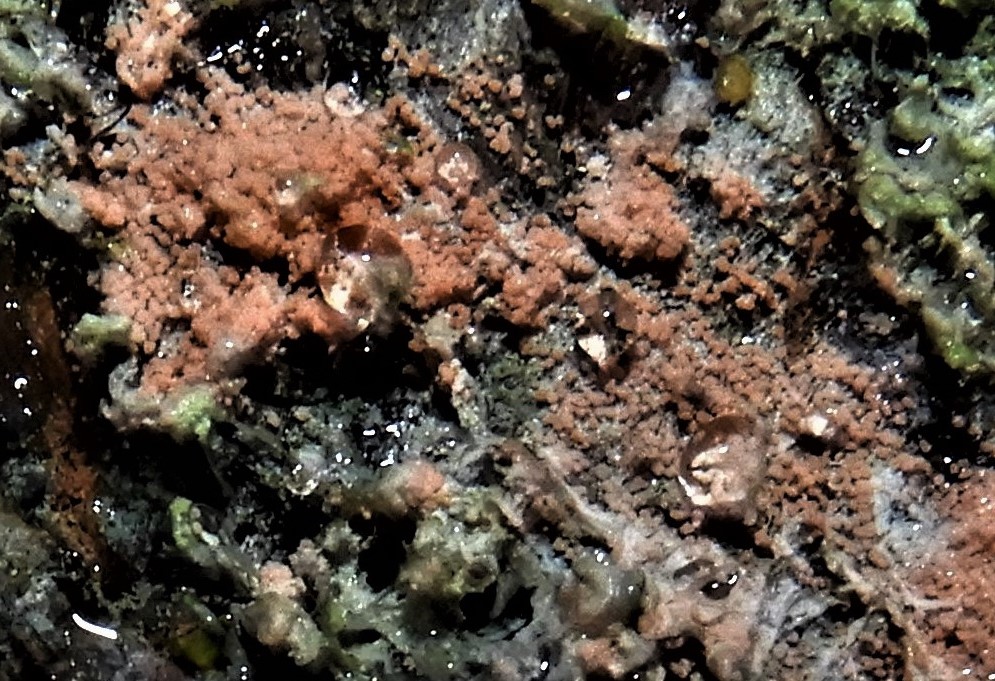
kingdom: Fungi
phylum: Basidiomycota
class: Agaricomycetes
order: Corticiales
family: Corticiaceae
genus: Erythricium
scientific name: Erythricium aurantiacum
